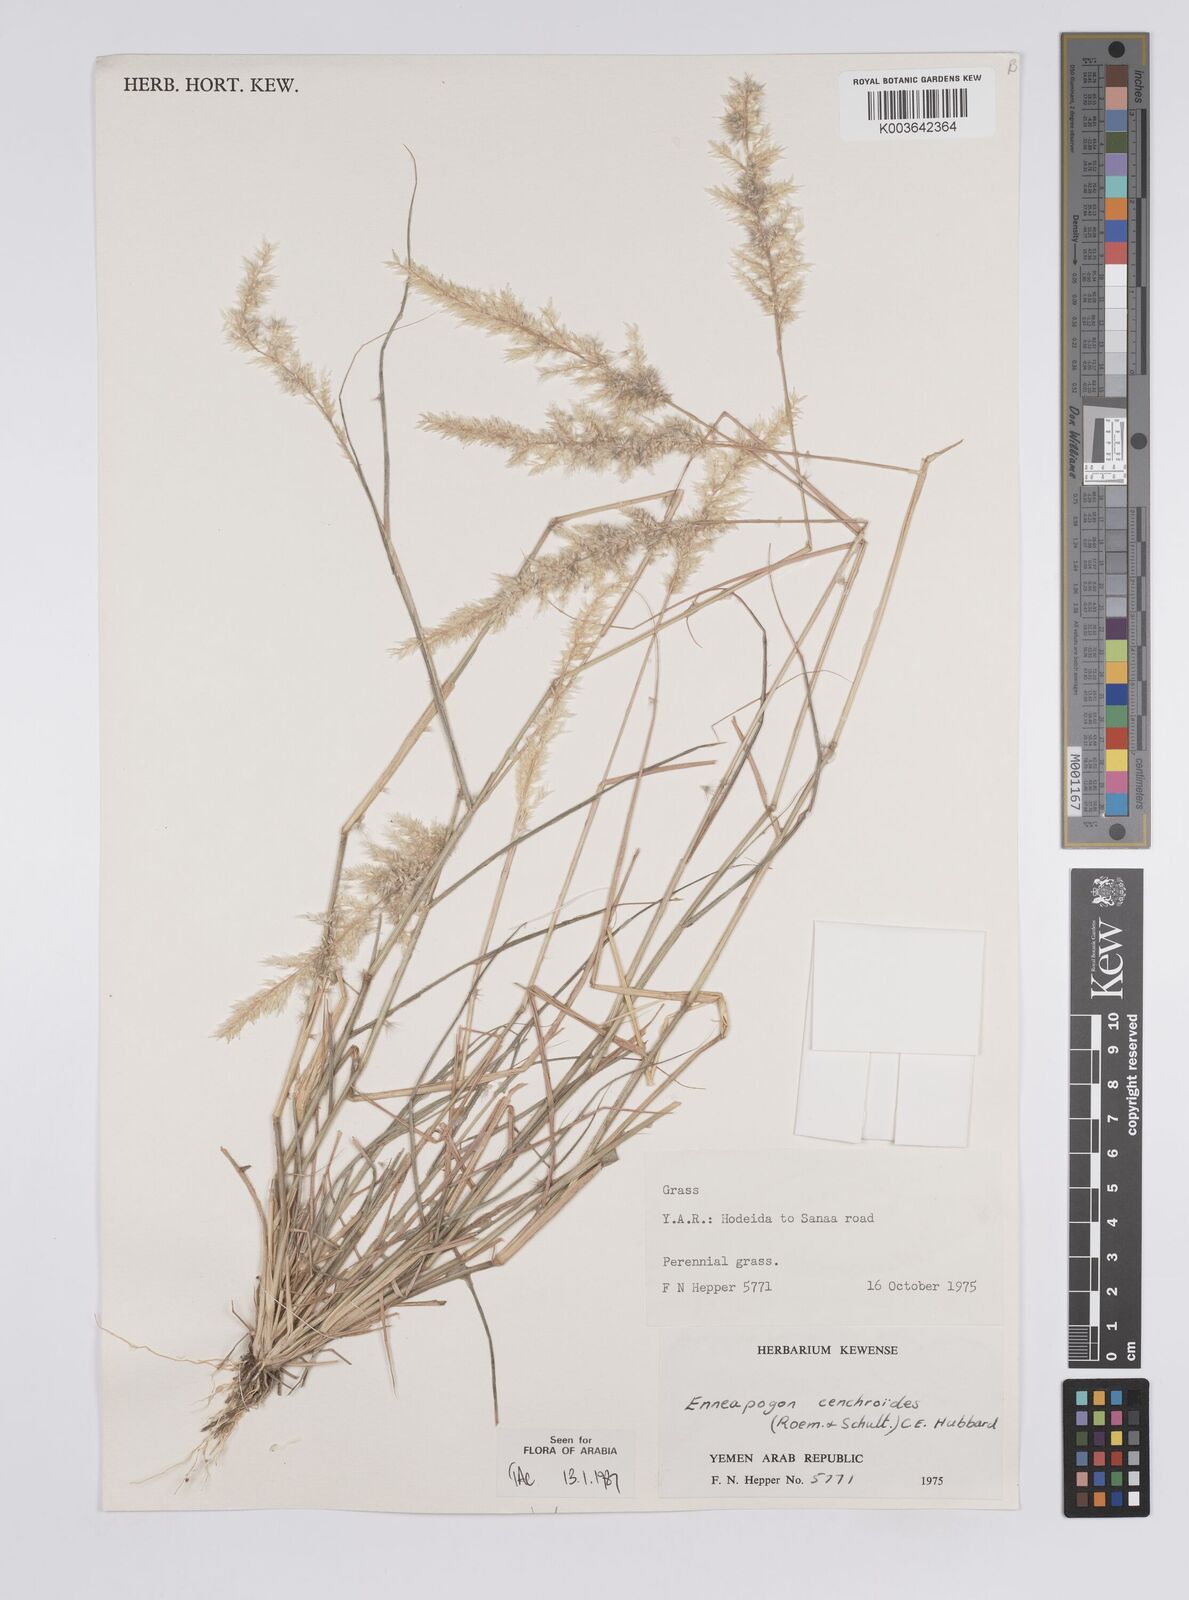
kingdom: Plantae
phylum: Tracheophyta
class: Liliopsida
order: Poales
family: Poaceae
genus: Enneapogon
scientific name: Enneapogon cenchroides
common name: Soft feather pappusgrass
